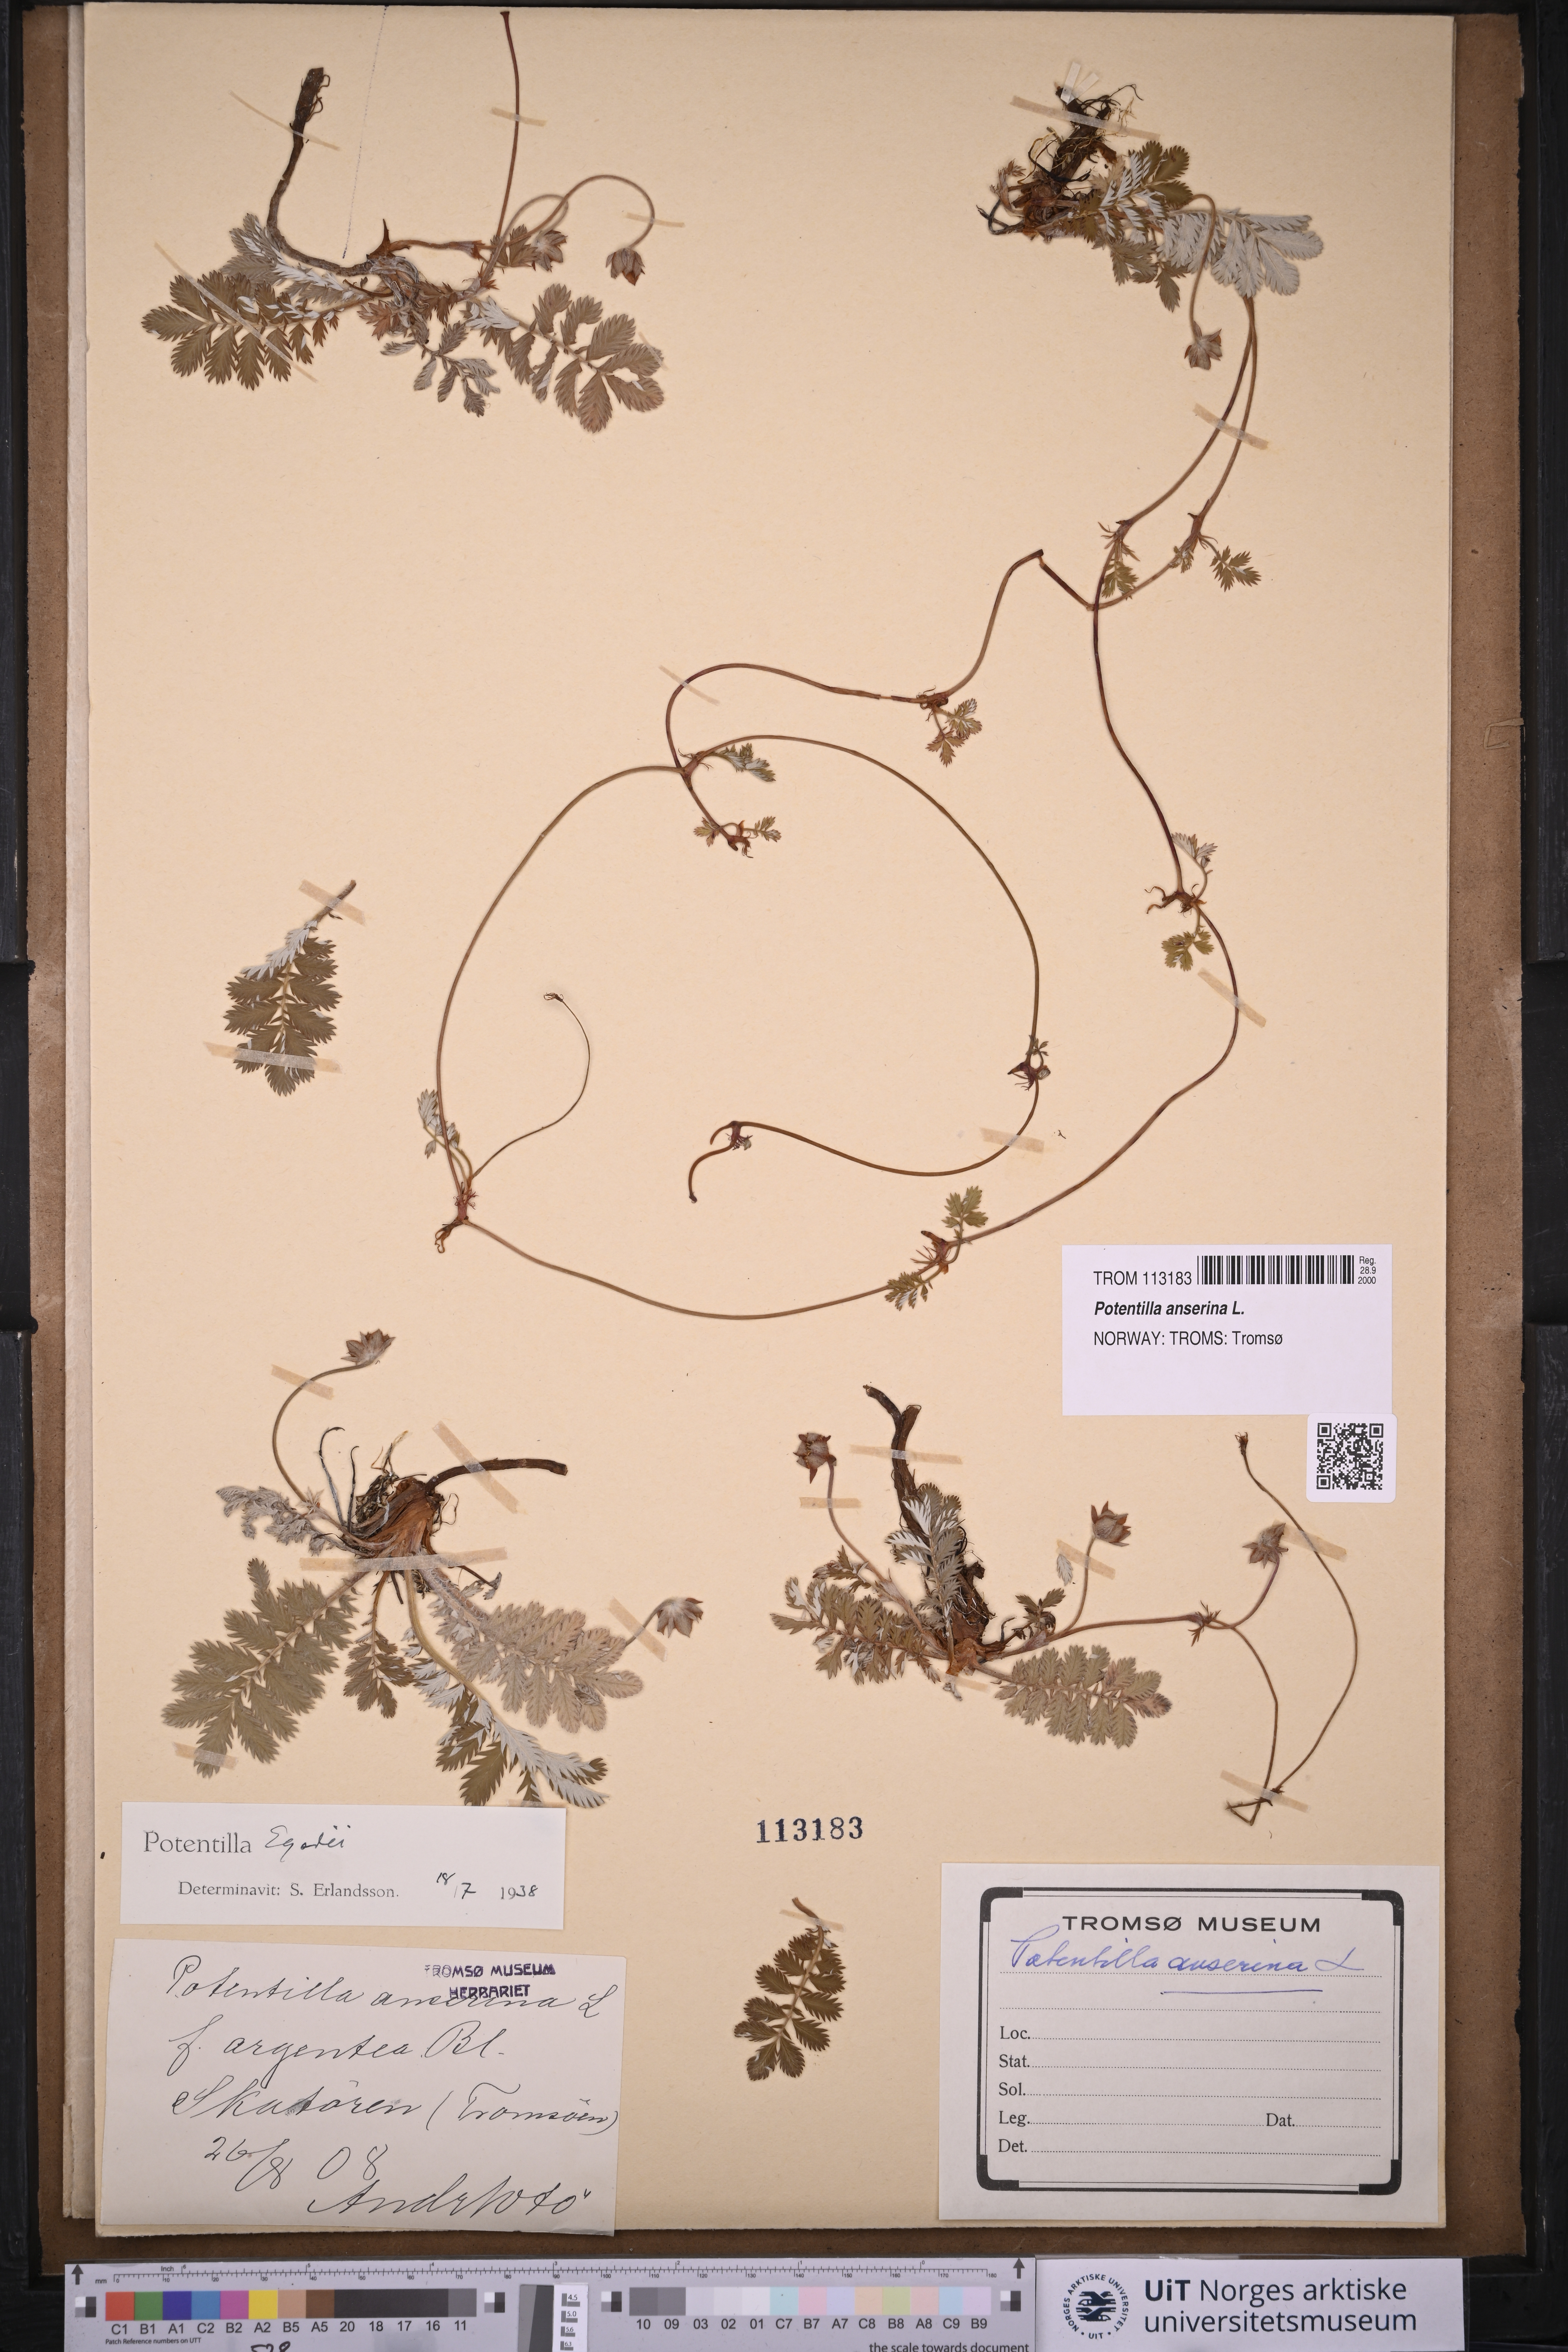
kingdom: Plantae
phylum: Tracheophyta
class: Magnoliopsida
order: Rosales
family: Rosaceae
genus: Argentina
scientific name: Argentina anserina
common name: Common silverweed
